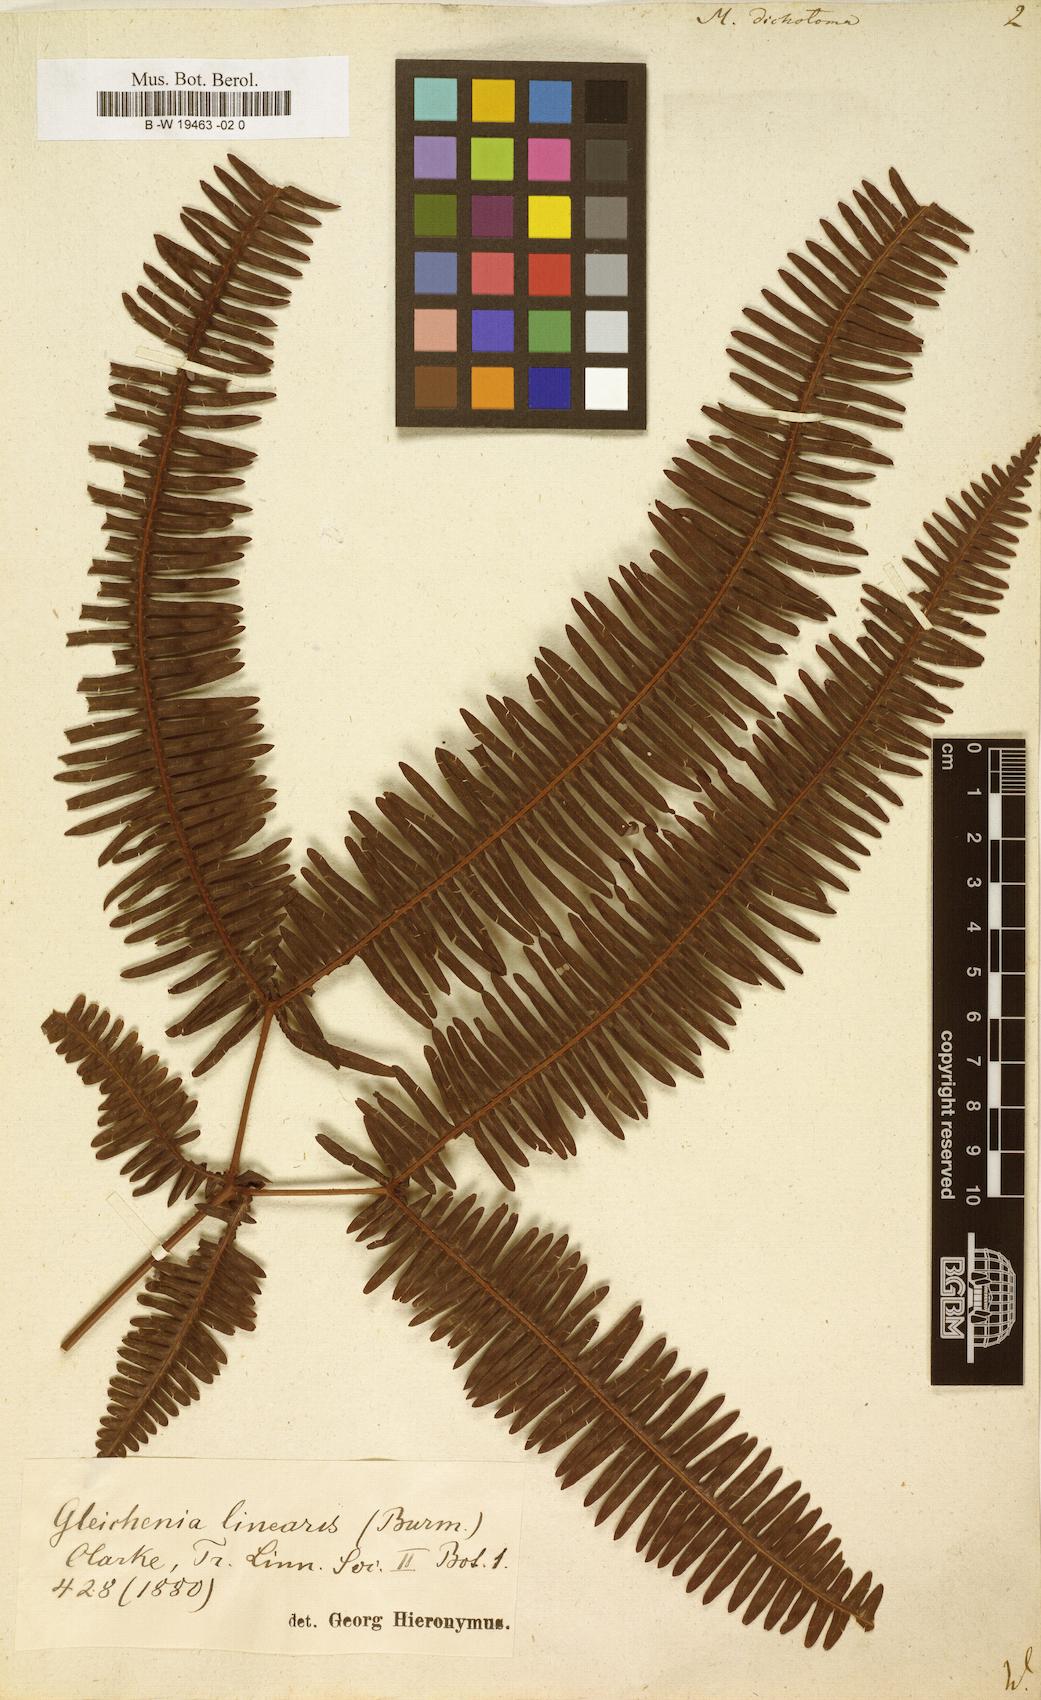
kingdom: Plantae
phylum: Tracheophyta
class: Polypodiopsida
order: Gleicheniales
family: Gleicheniaceae
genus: Dicranopteris
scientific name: Dicranopteris pedata
